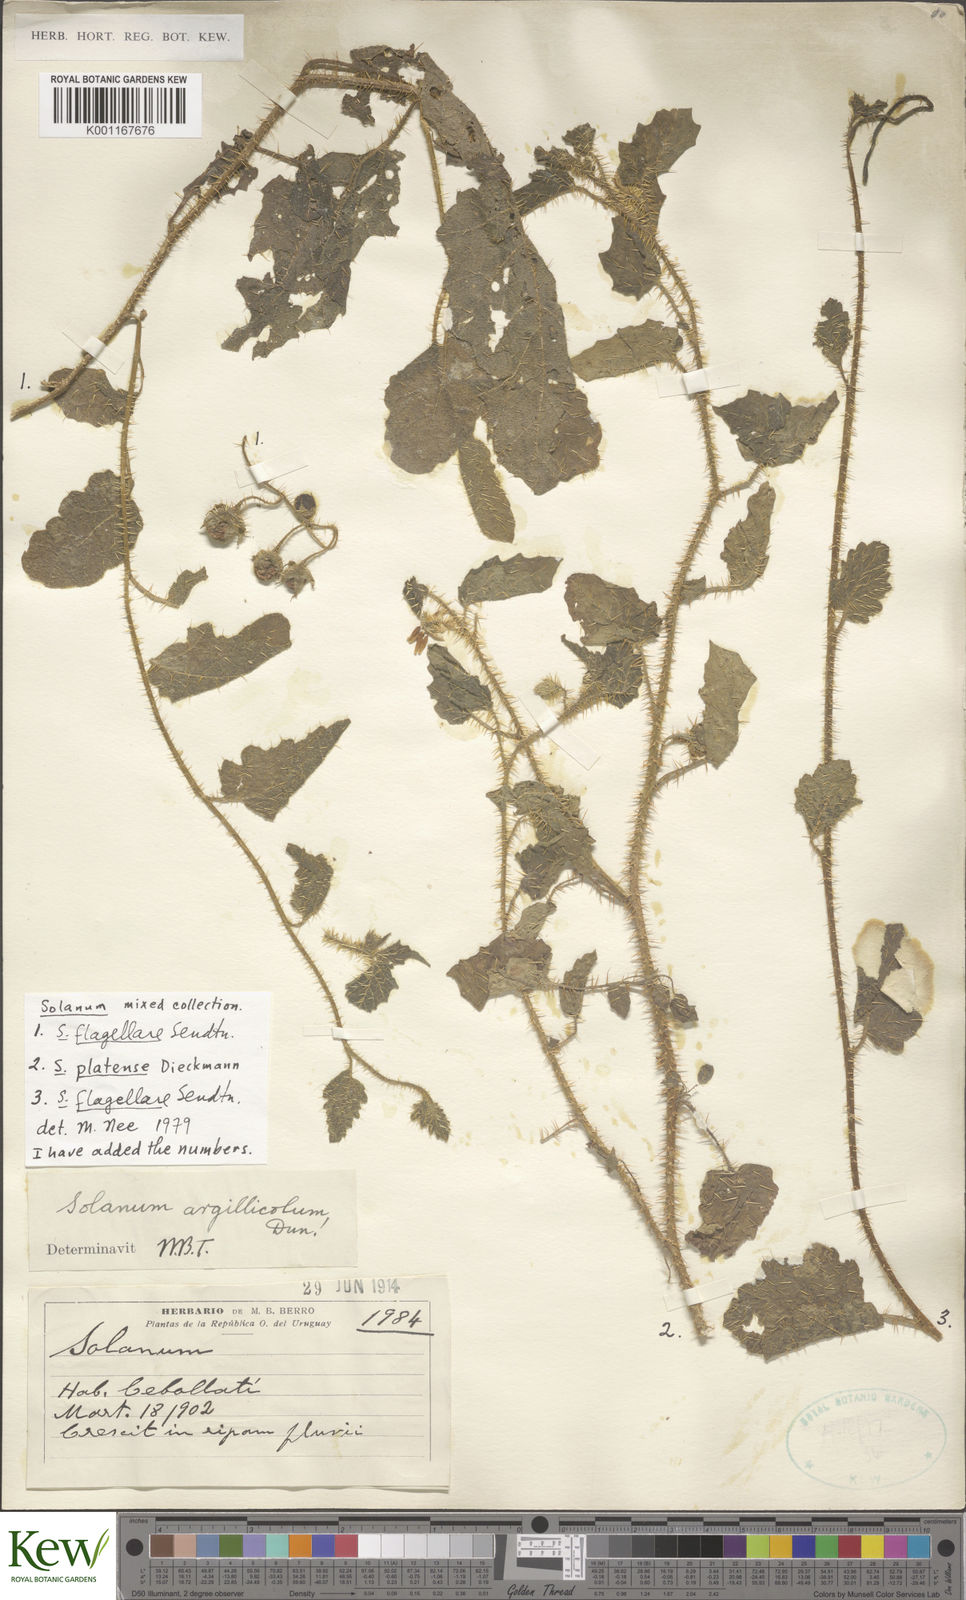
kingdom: Plantae
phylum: Tracheophyta
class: Magnoliopsida
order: Solanales
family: Solanaceae
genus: Solanum
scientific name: Solanum platense
